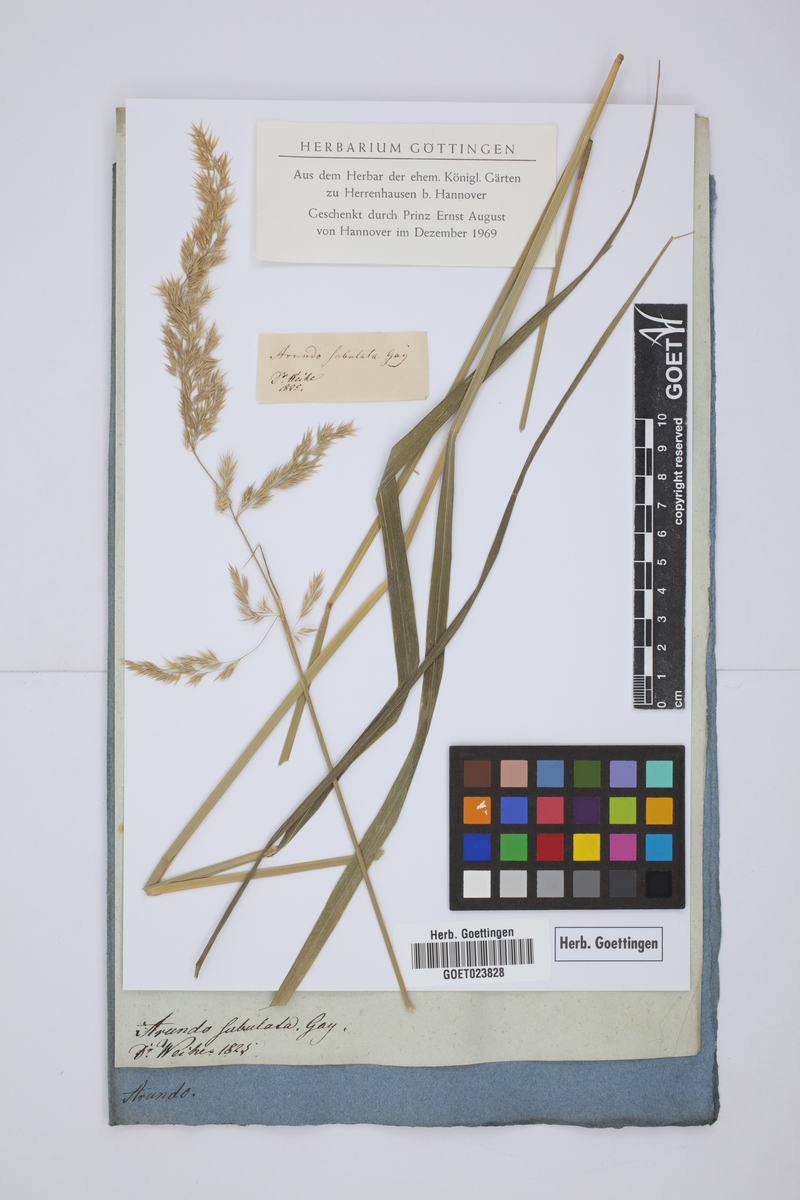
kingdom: Plantae
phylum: Tracheophyta
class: Liliopsida
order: Poales
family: Poaceae
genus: Calamagrostis
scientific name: Calamagrostis acutiflora
